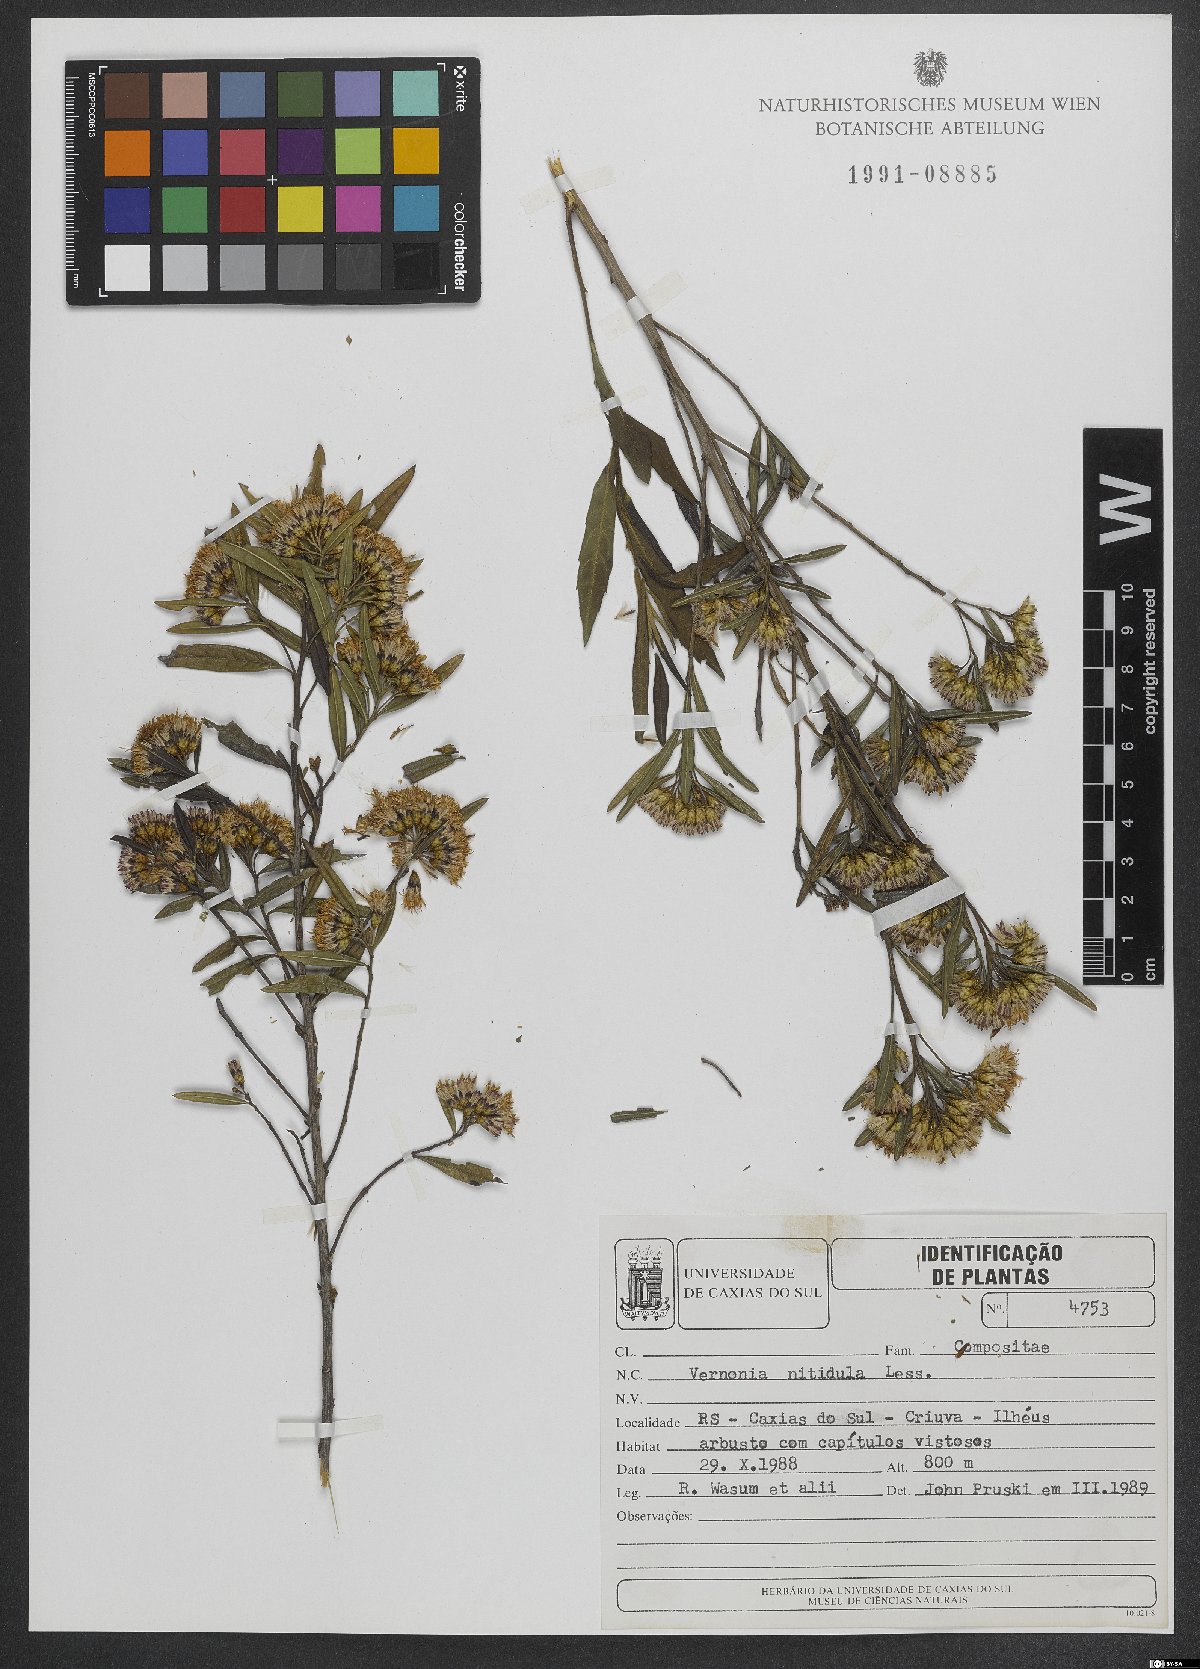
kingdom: Plantae
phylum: Tracheophyta
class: Magnoliopsida
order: Asterales
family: Asteraceae
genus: Vernonanthura
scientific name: Vernonanthura montevidensis
